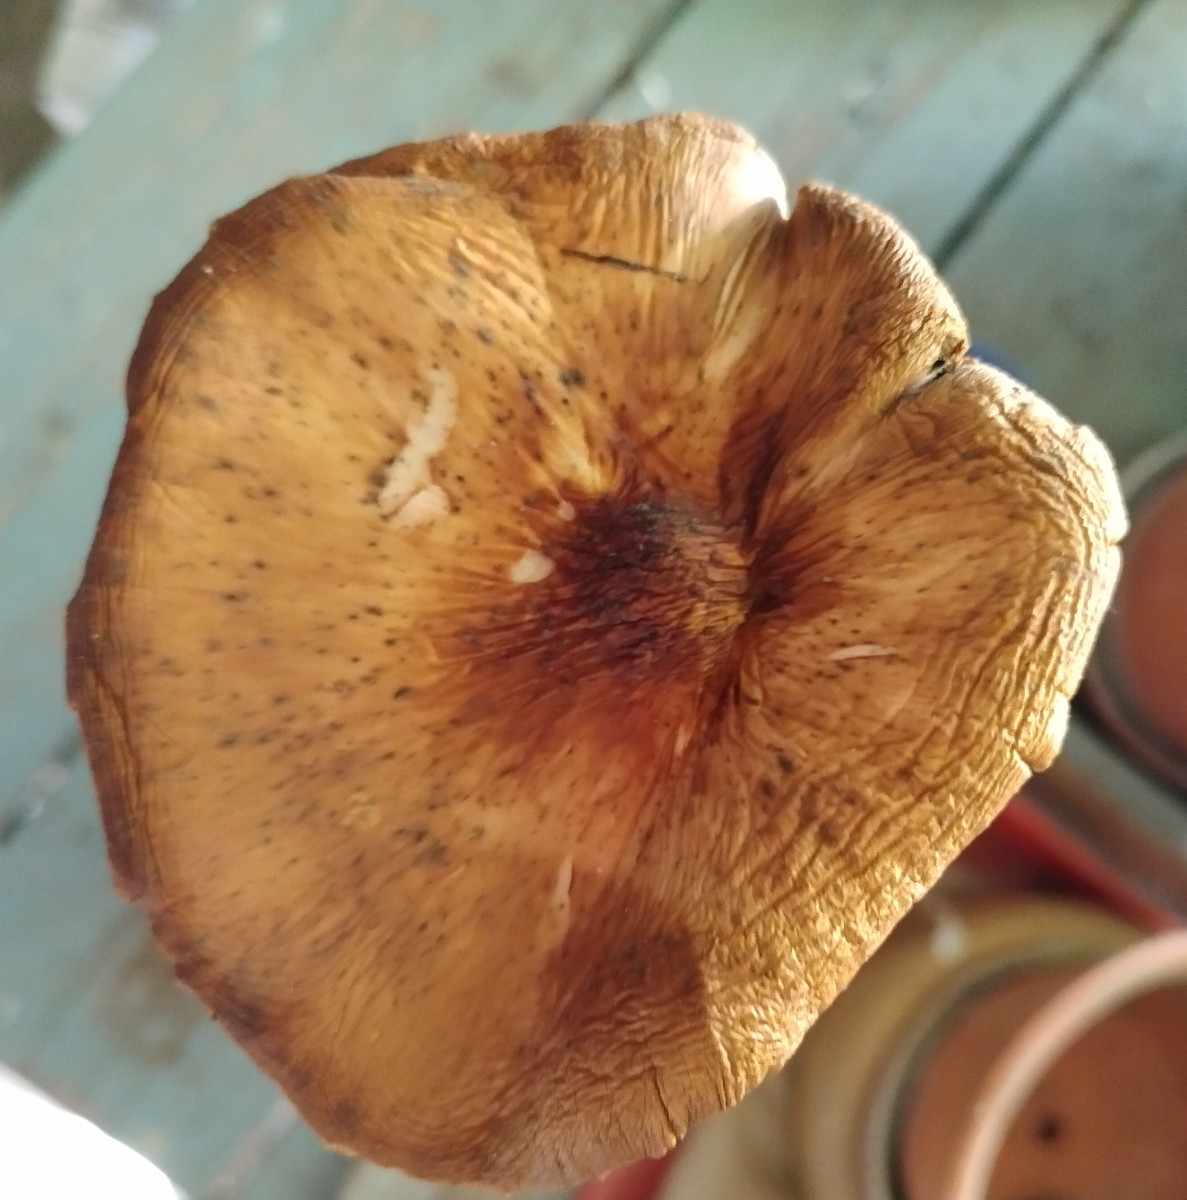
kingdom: Fungi
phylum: Basidiomycota
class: Agaricomycetes
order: Agaricales
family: Pluteaceae
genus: Pluteus
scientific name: Pluteus cervinus
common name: sodfarvet skærmhat
